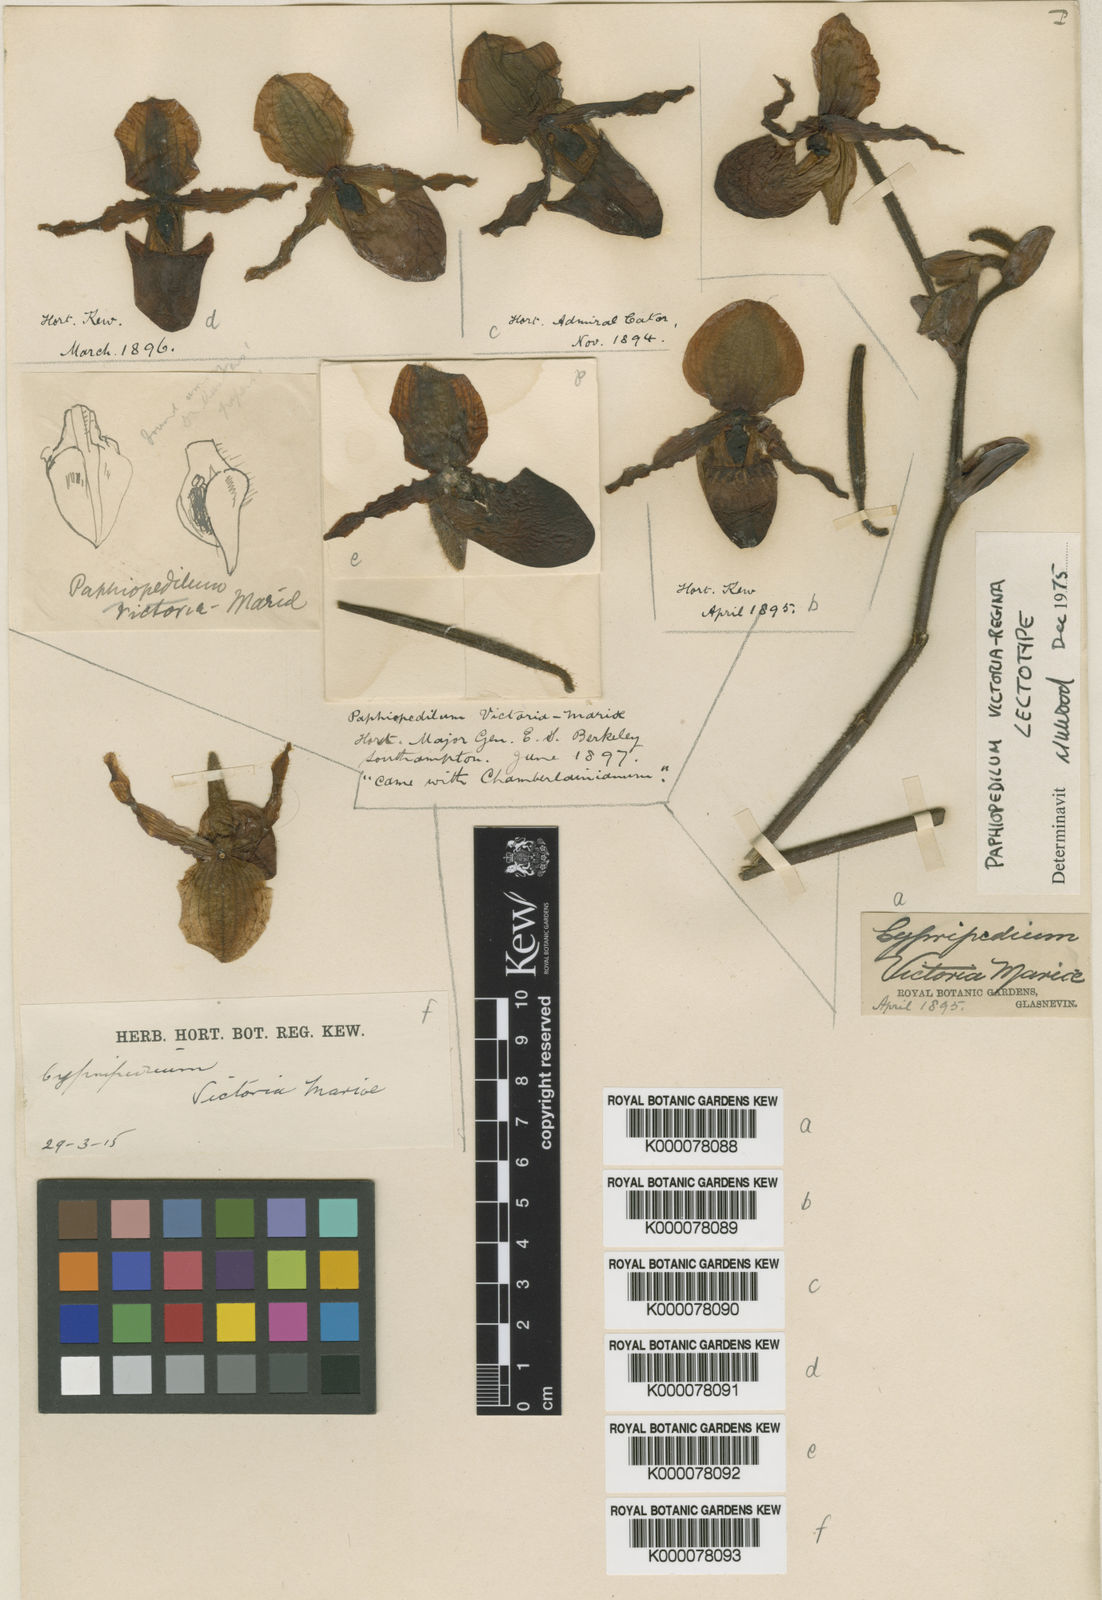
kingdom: Plantae
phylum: Tracheophyta
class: Liliopsida
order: Asparagales
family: Orchidaceae
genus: Paphiopedilum
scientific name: Paphiopedilum victoria-mariae
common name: Virgin mary paphiopedilum
